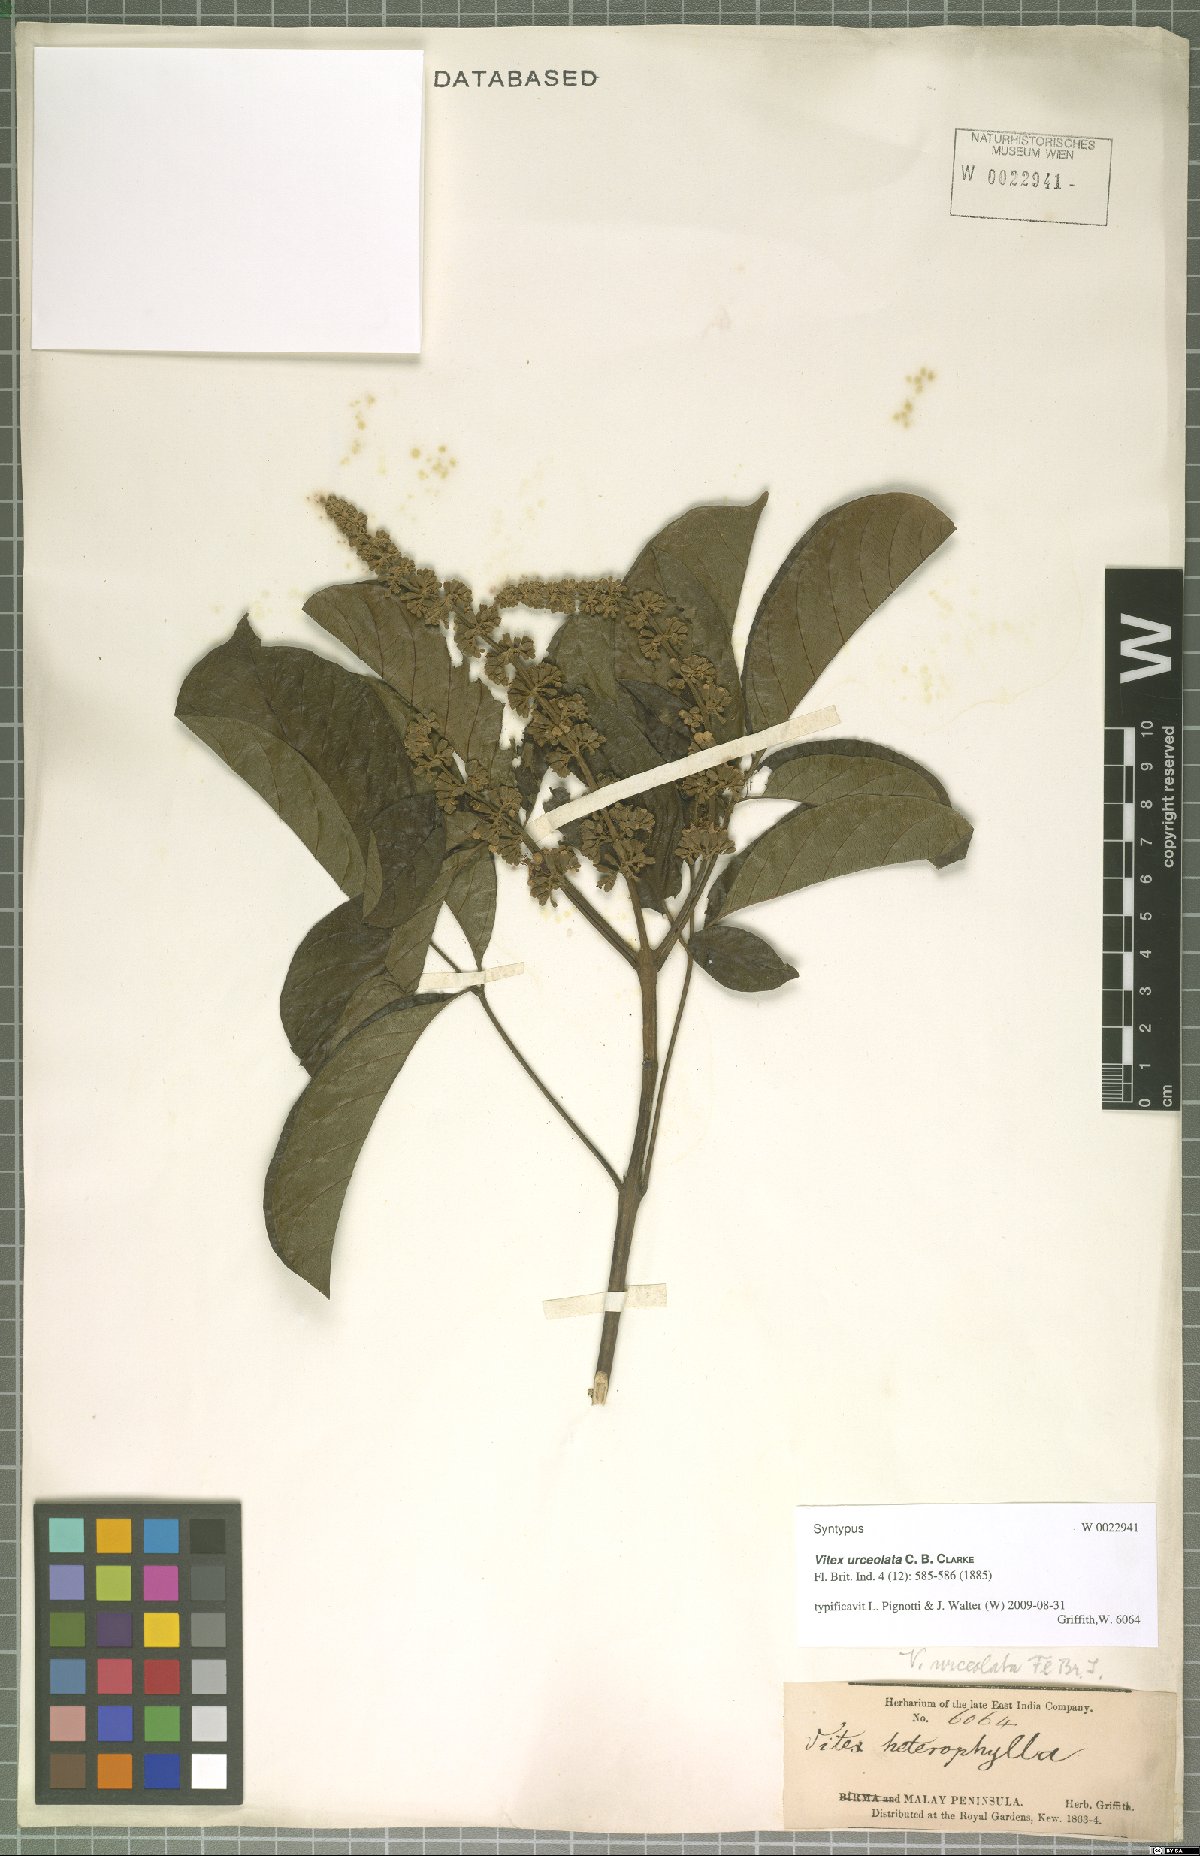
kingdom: Plantae
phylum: Tracheophyta
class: Magnoliopsida
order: Lamiales
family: Lamiaceae
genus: Vitex
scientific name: Vitex quinata
